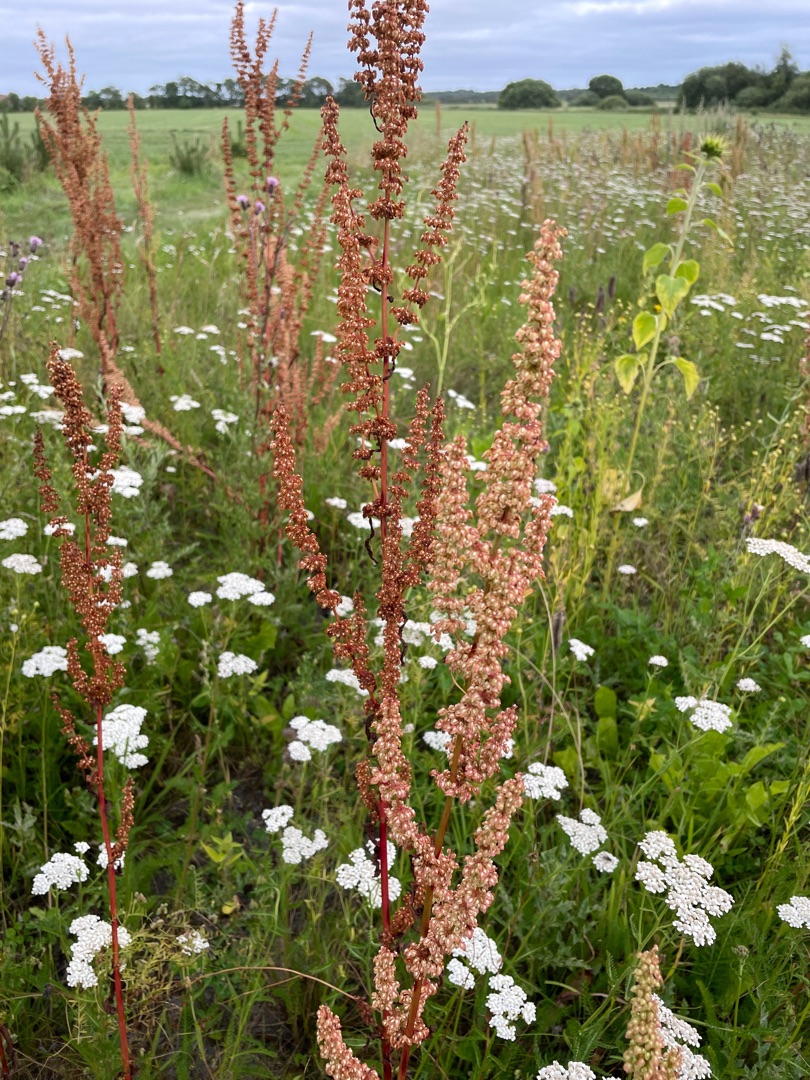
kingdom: Plantae
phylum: Tracheophyta
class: Magnoliopsida
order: Caryophyllales
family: Polygonaceae
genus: Rumex
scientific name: Rumex crispus
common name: Kruset skræppe
